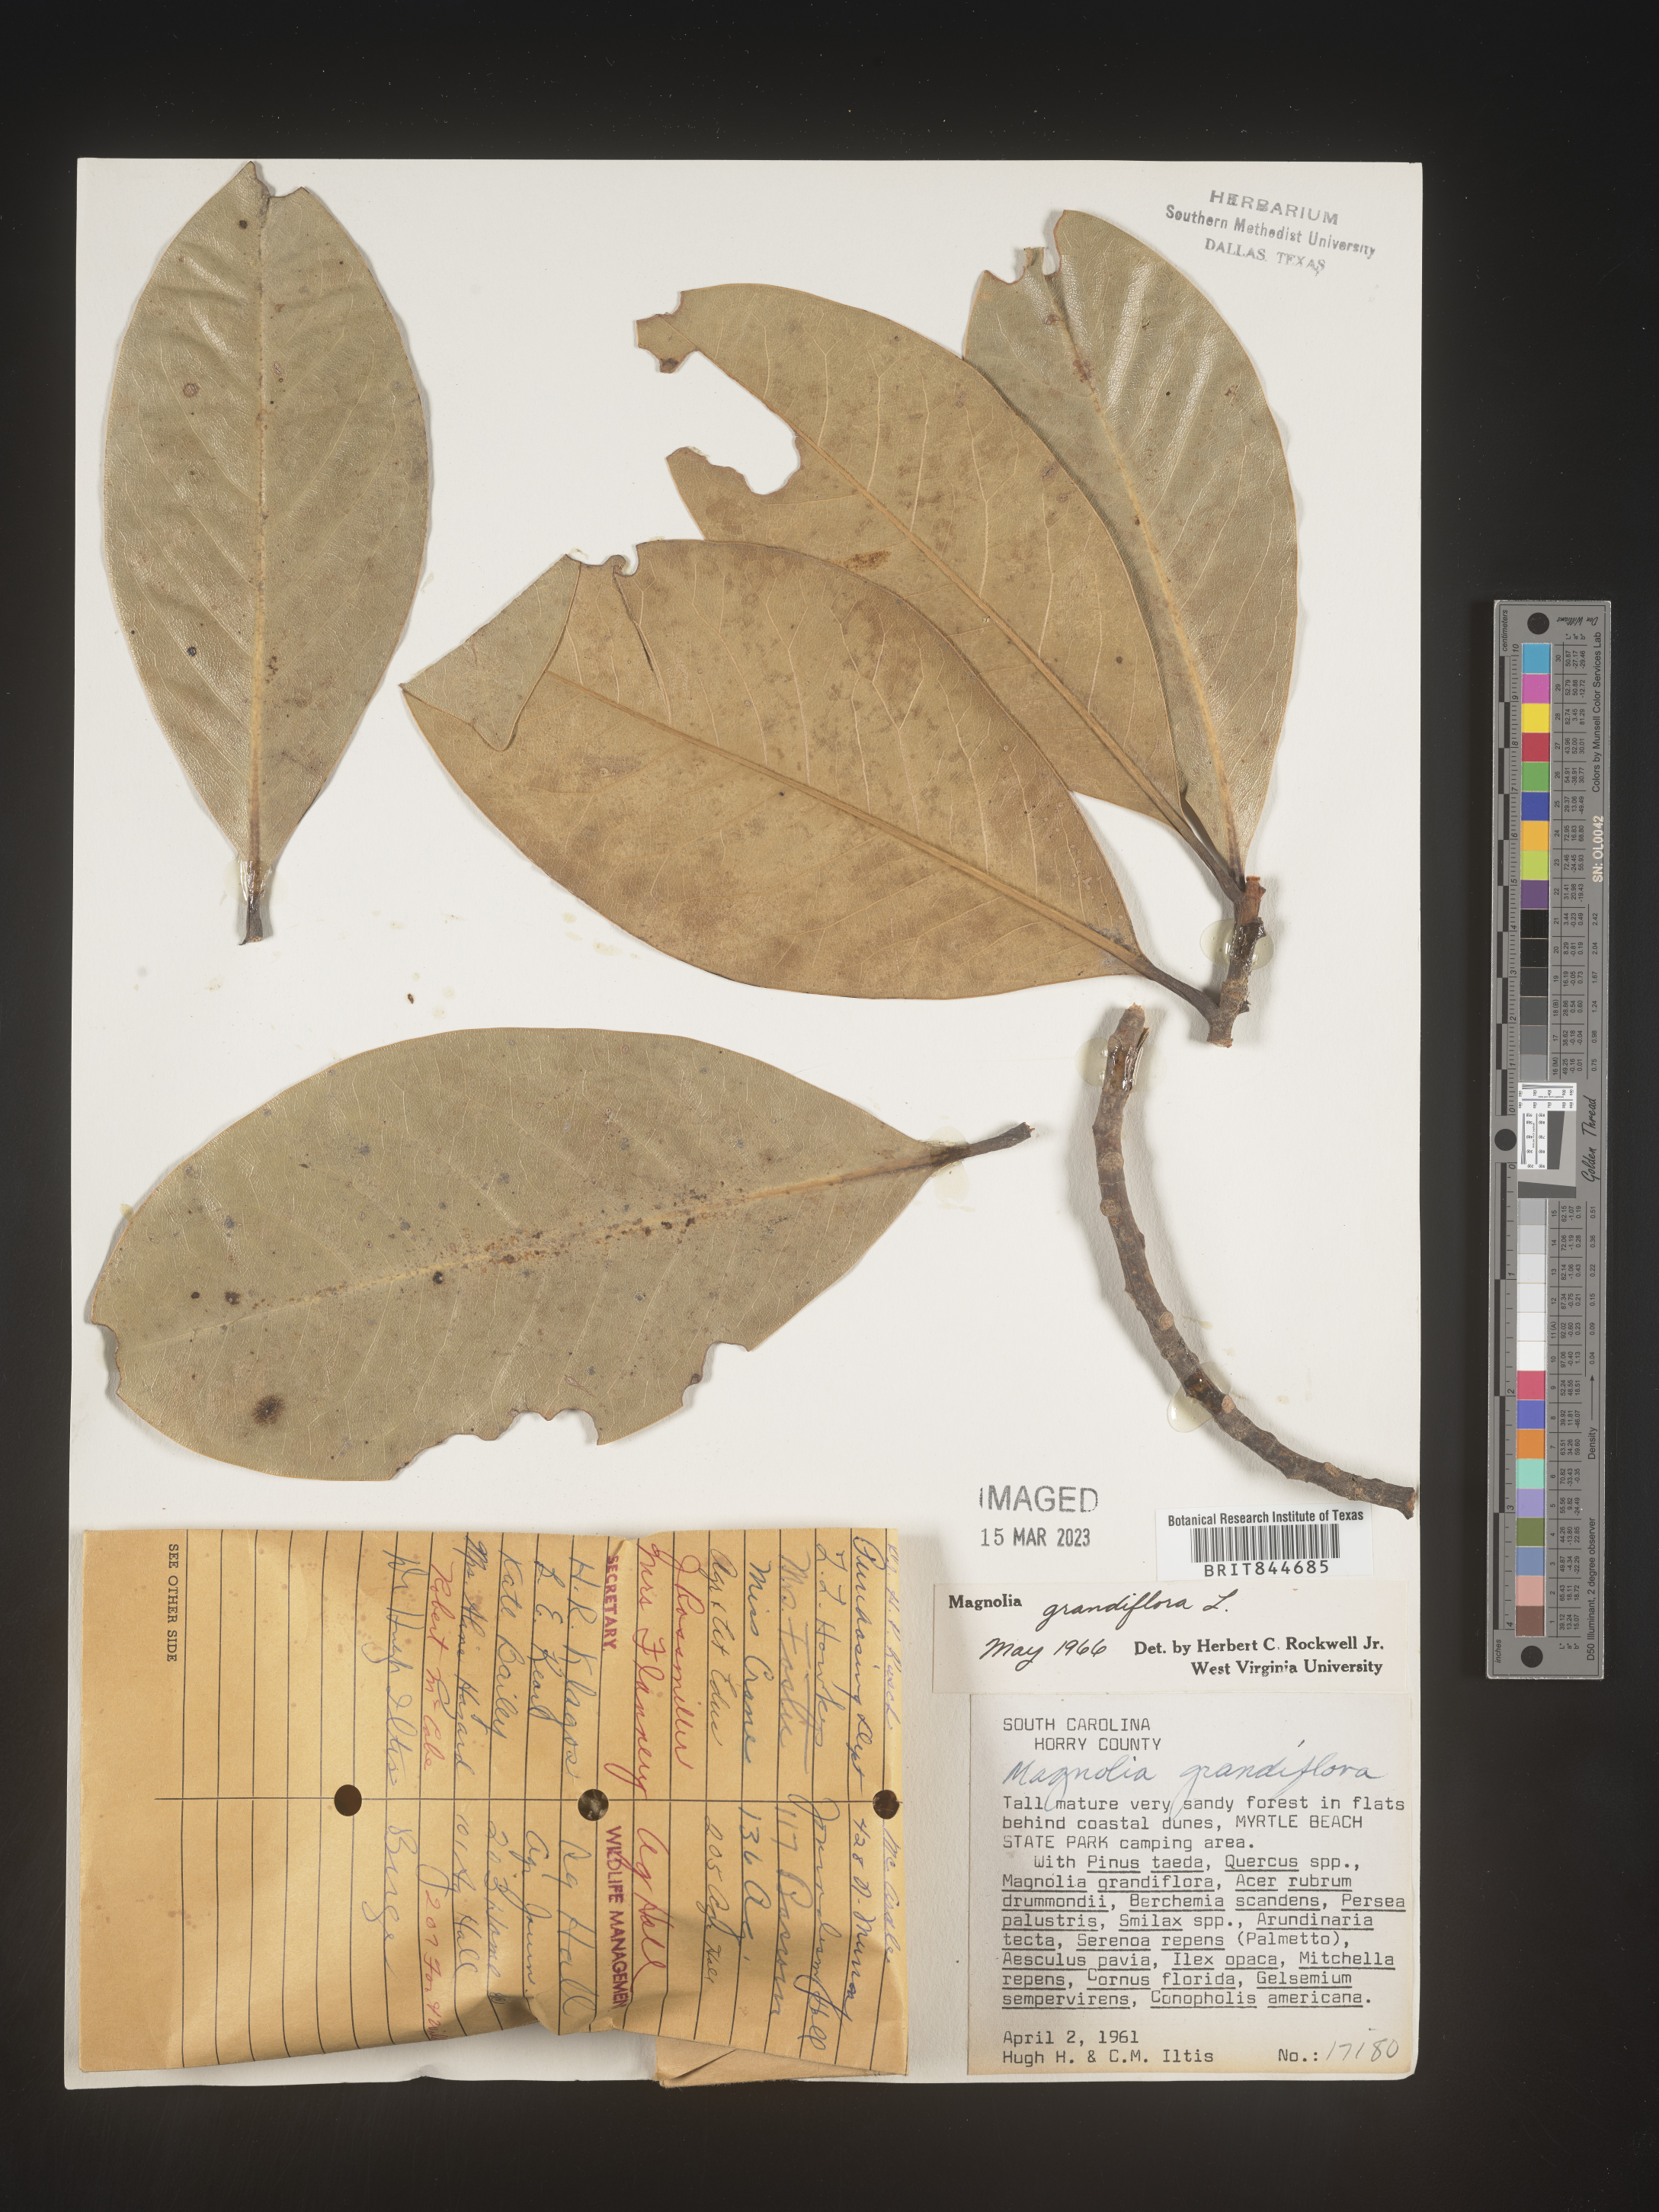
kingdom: Plantae
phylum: Tracheophyta
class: Magnoliopsida
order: Magnoliales
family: Magnoliaceae
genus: Magnolia
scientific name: Magnolia grandiflora
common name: Southern magnolia
